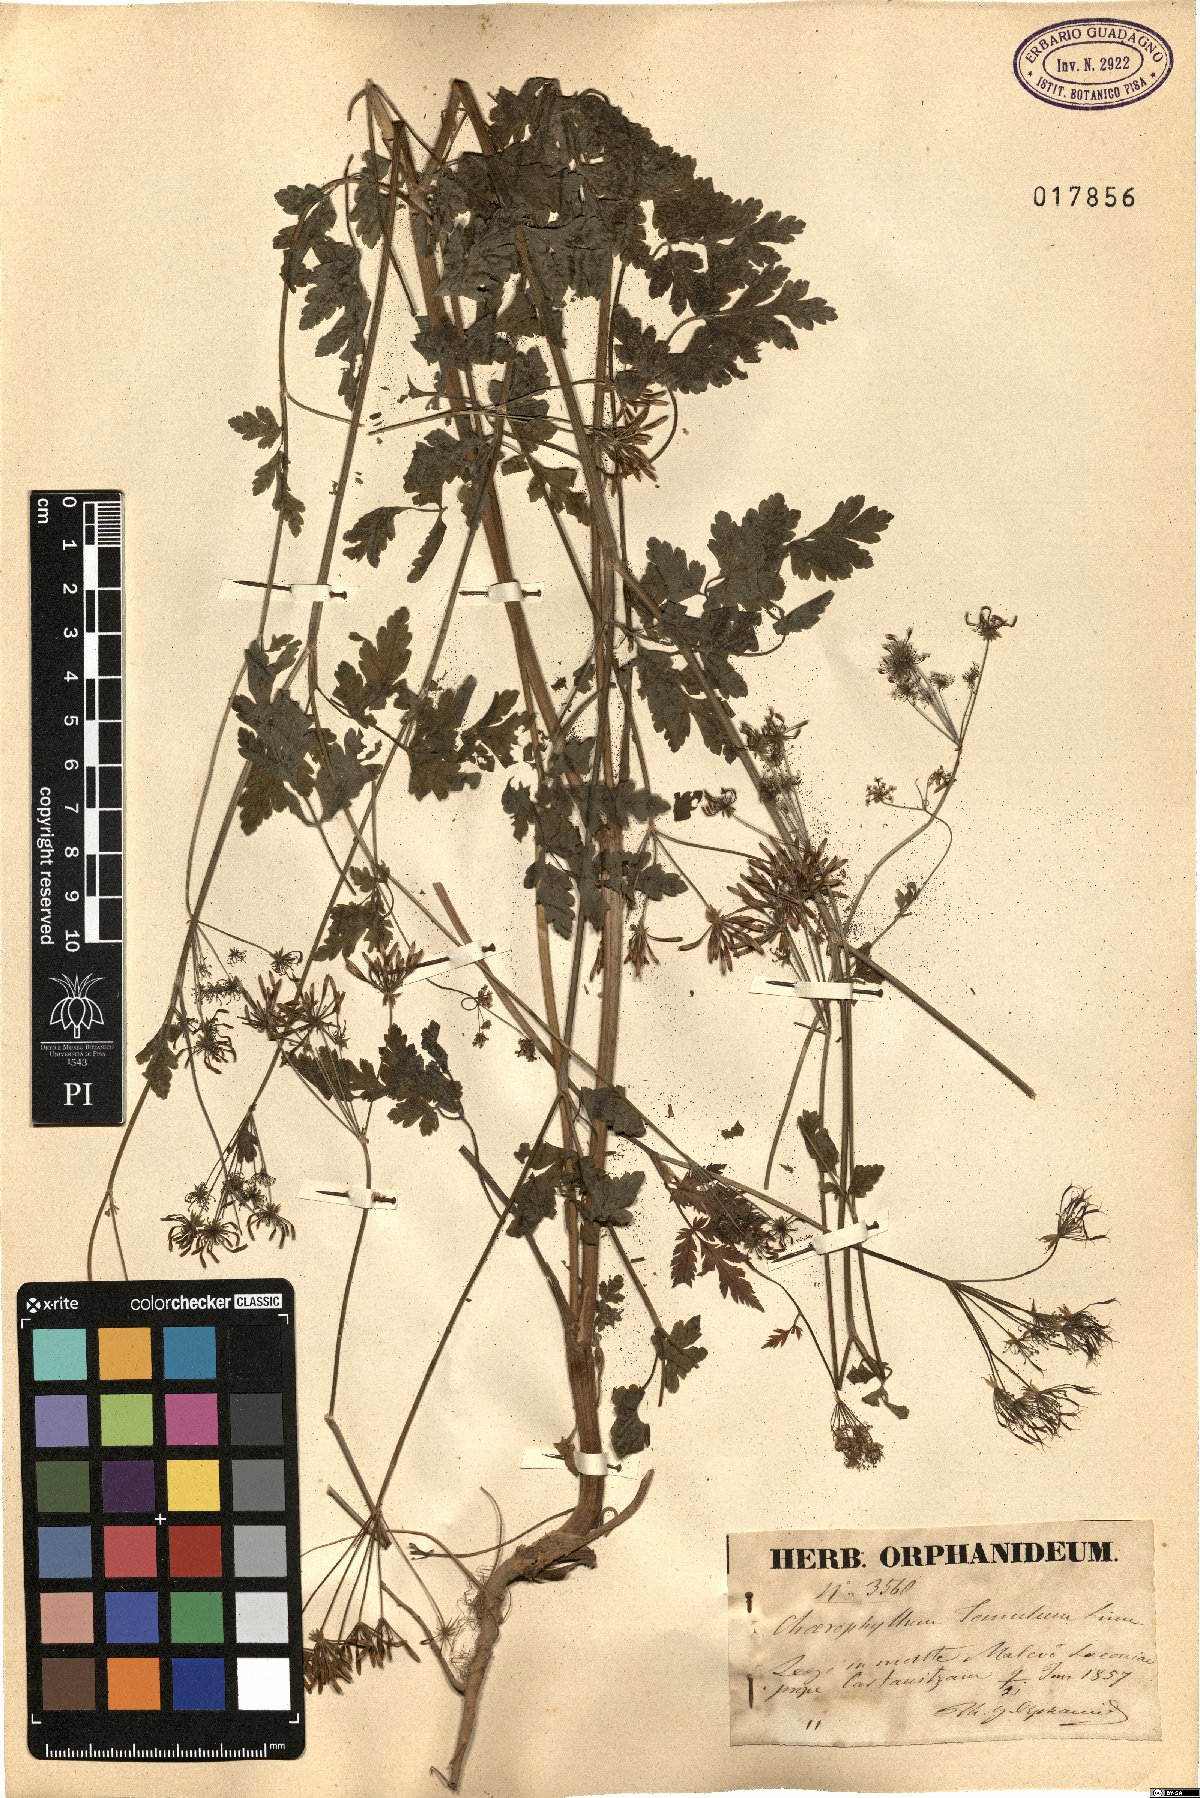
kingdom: Plantae
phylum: Tracheophyta
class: Magnoliopsida
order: Apiales
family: Apiaceae
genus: Chaerophyllum
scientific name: Chaerophyllum temulum
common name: Rough chervil
